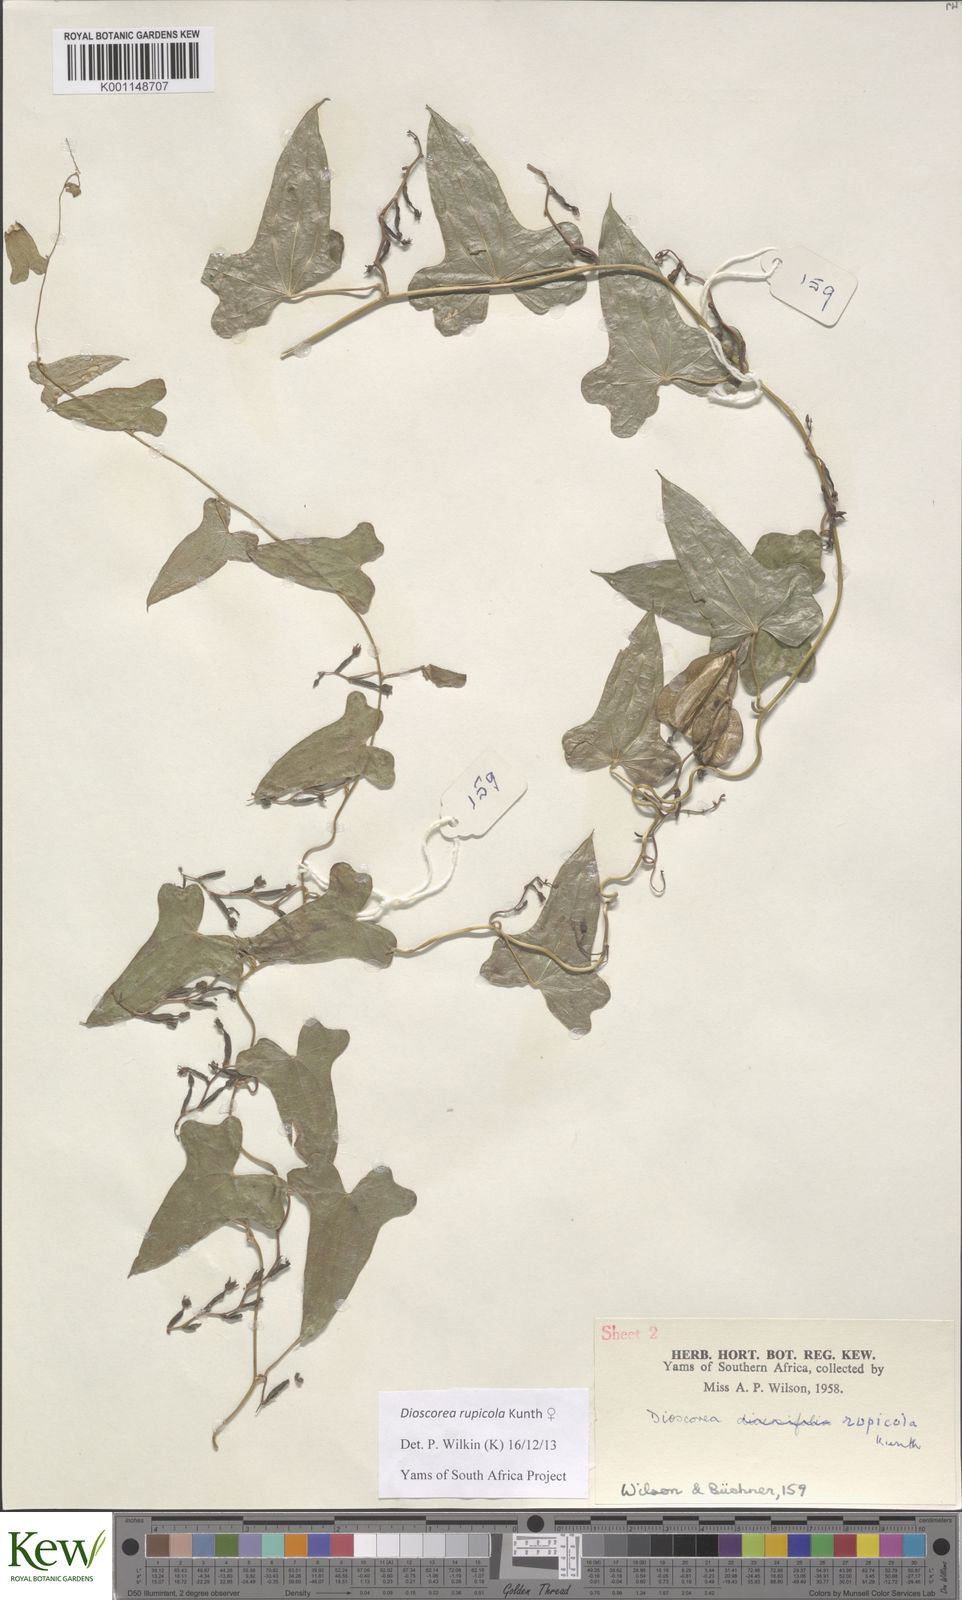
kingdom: Plantae
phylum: Tracheophyta
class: Liliopsida
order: Dioscoreales
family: Dioscoreaceae
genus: Dioscorea
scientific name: Dioscorea rupicola
